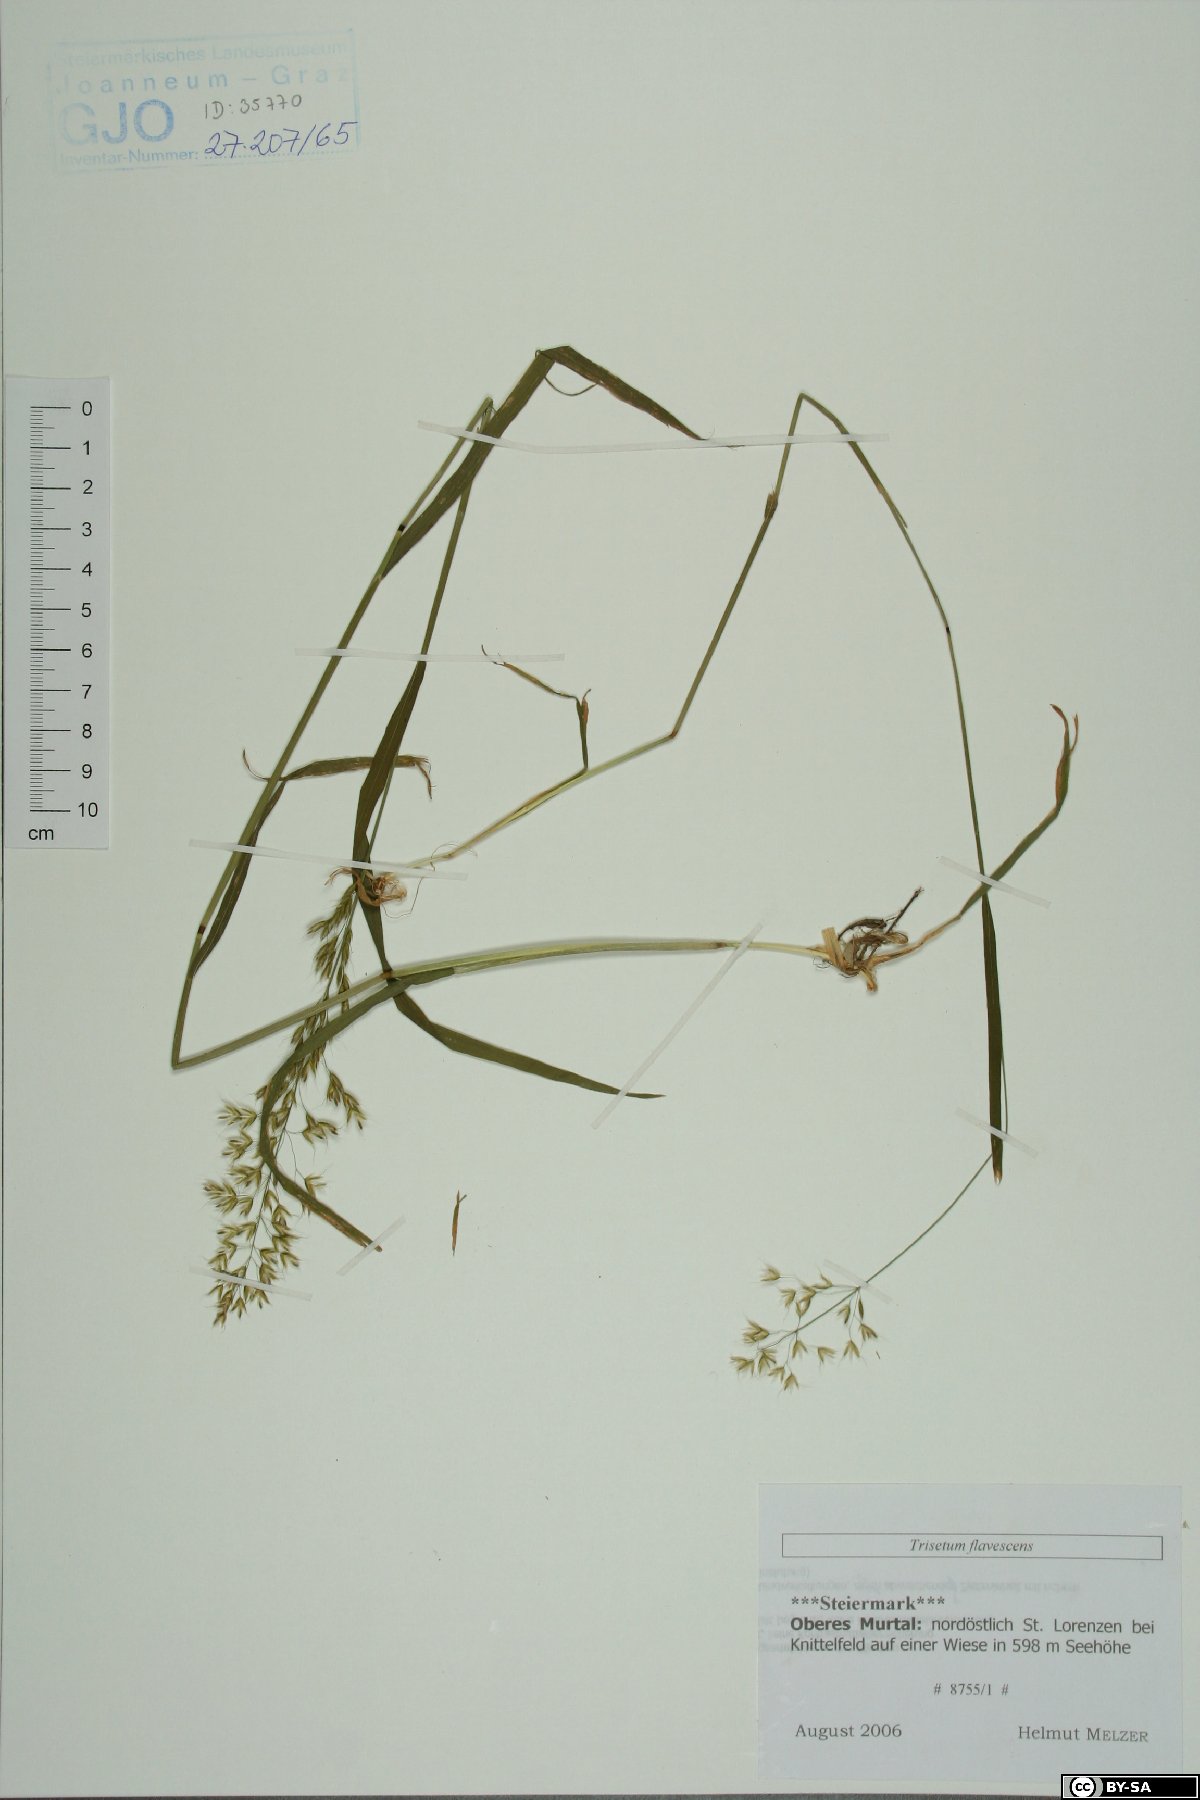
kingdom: Plantae
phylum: Tracheophyta
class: Liliopsida
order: Poales
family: Poaceae
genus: Trisetum
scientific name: Trisetum flavescens
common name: Yellow oat-grass
